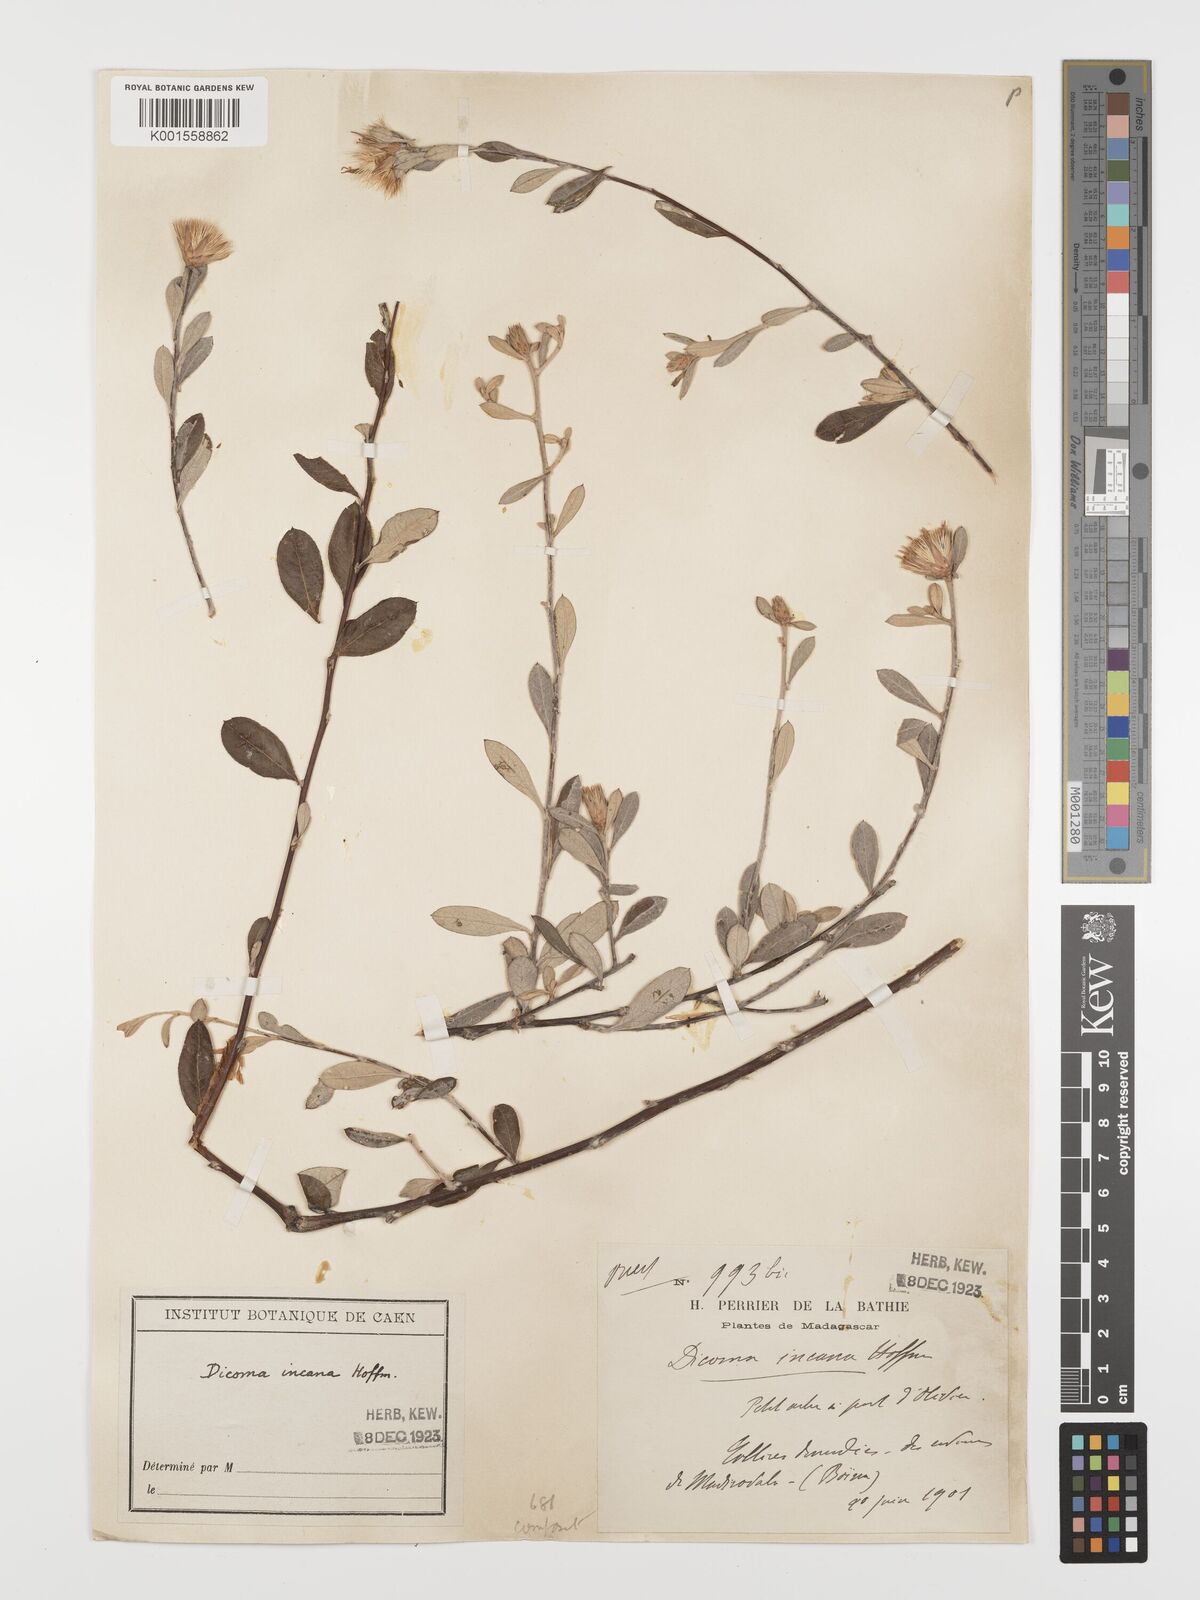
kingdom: Plantae
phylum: Tracheophyta
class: Magnoliopsida
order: Asterales
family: Asteraceae
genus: Dicoma
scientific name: Dicoma incana
